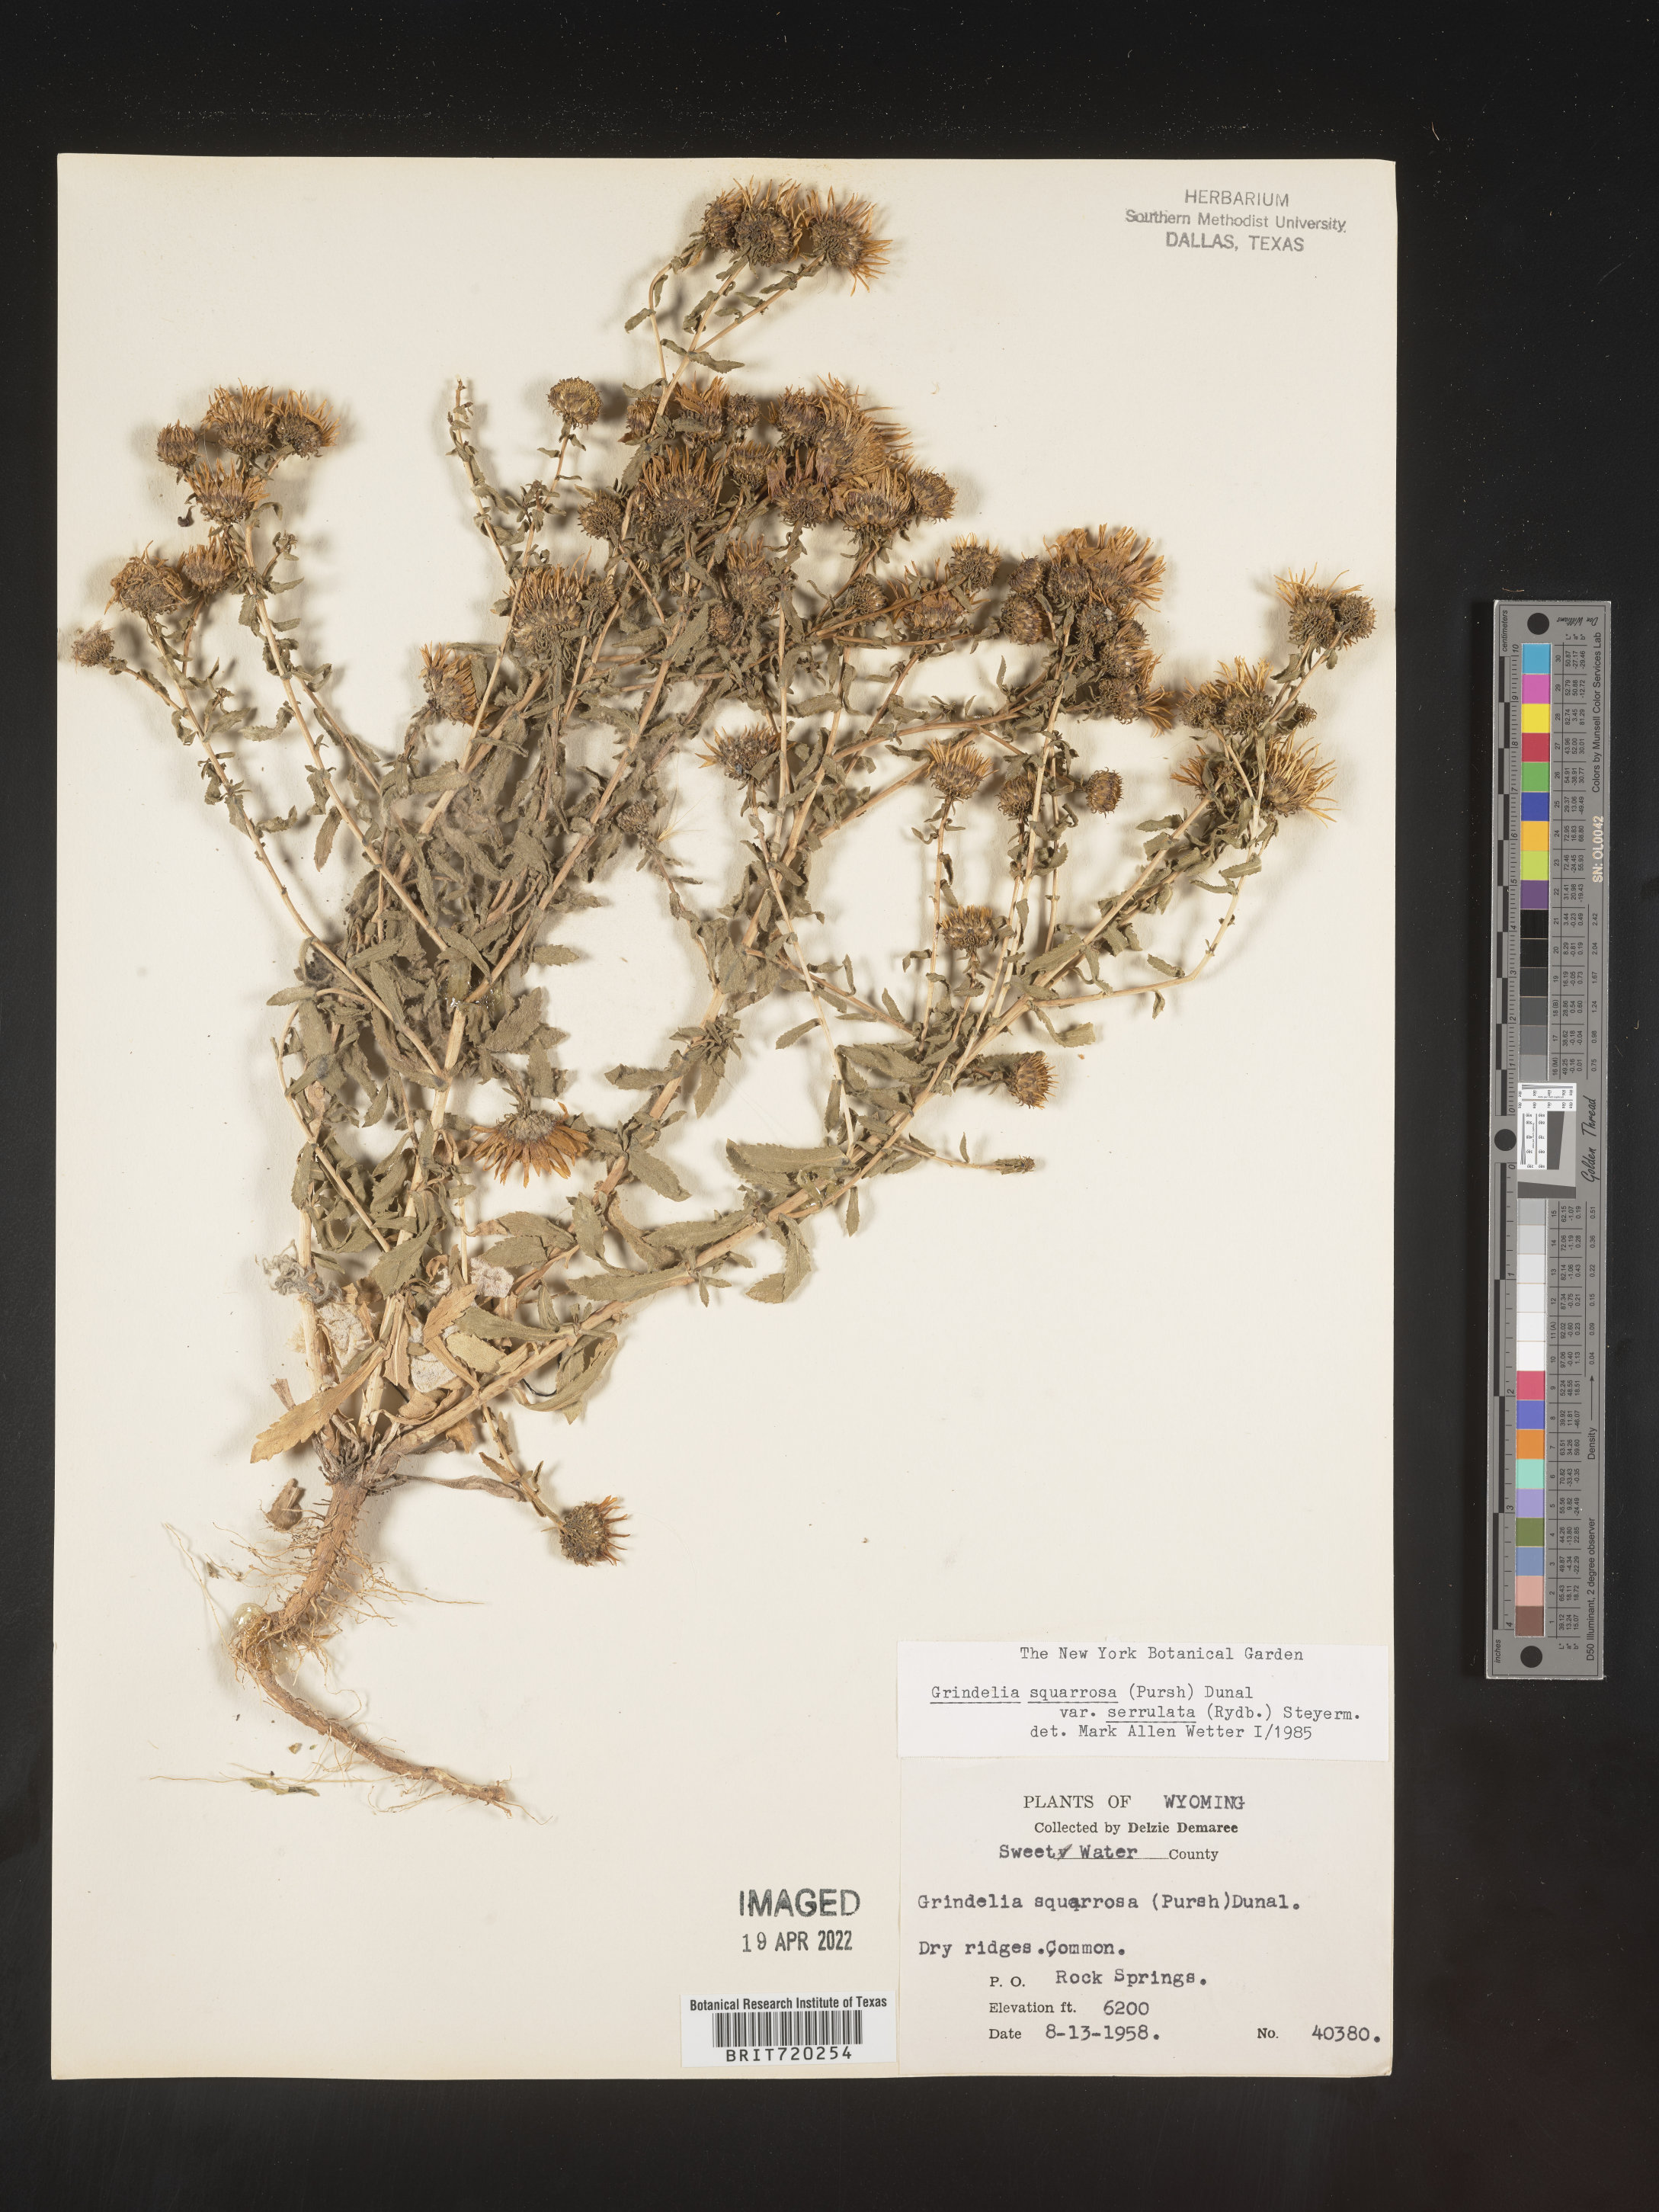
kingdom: Plantae
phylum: Tracheophyta
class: Magnoliopsida
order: Asterales
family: Asteraceae
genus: Grindelia
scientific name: Grindelia squarrosa
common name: Curly-cup gumweed
